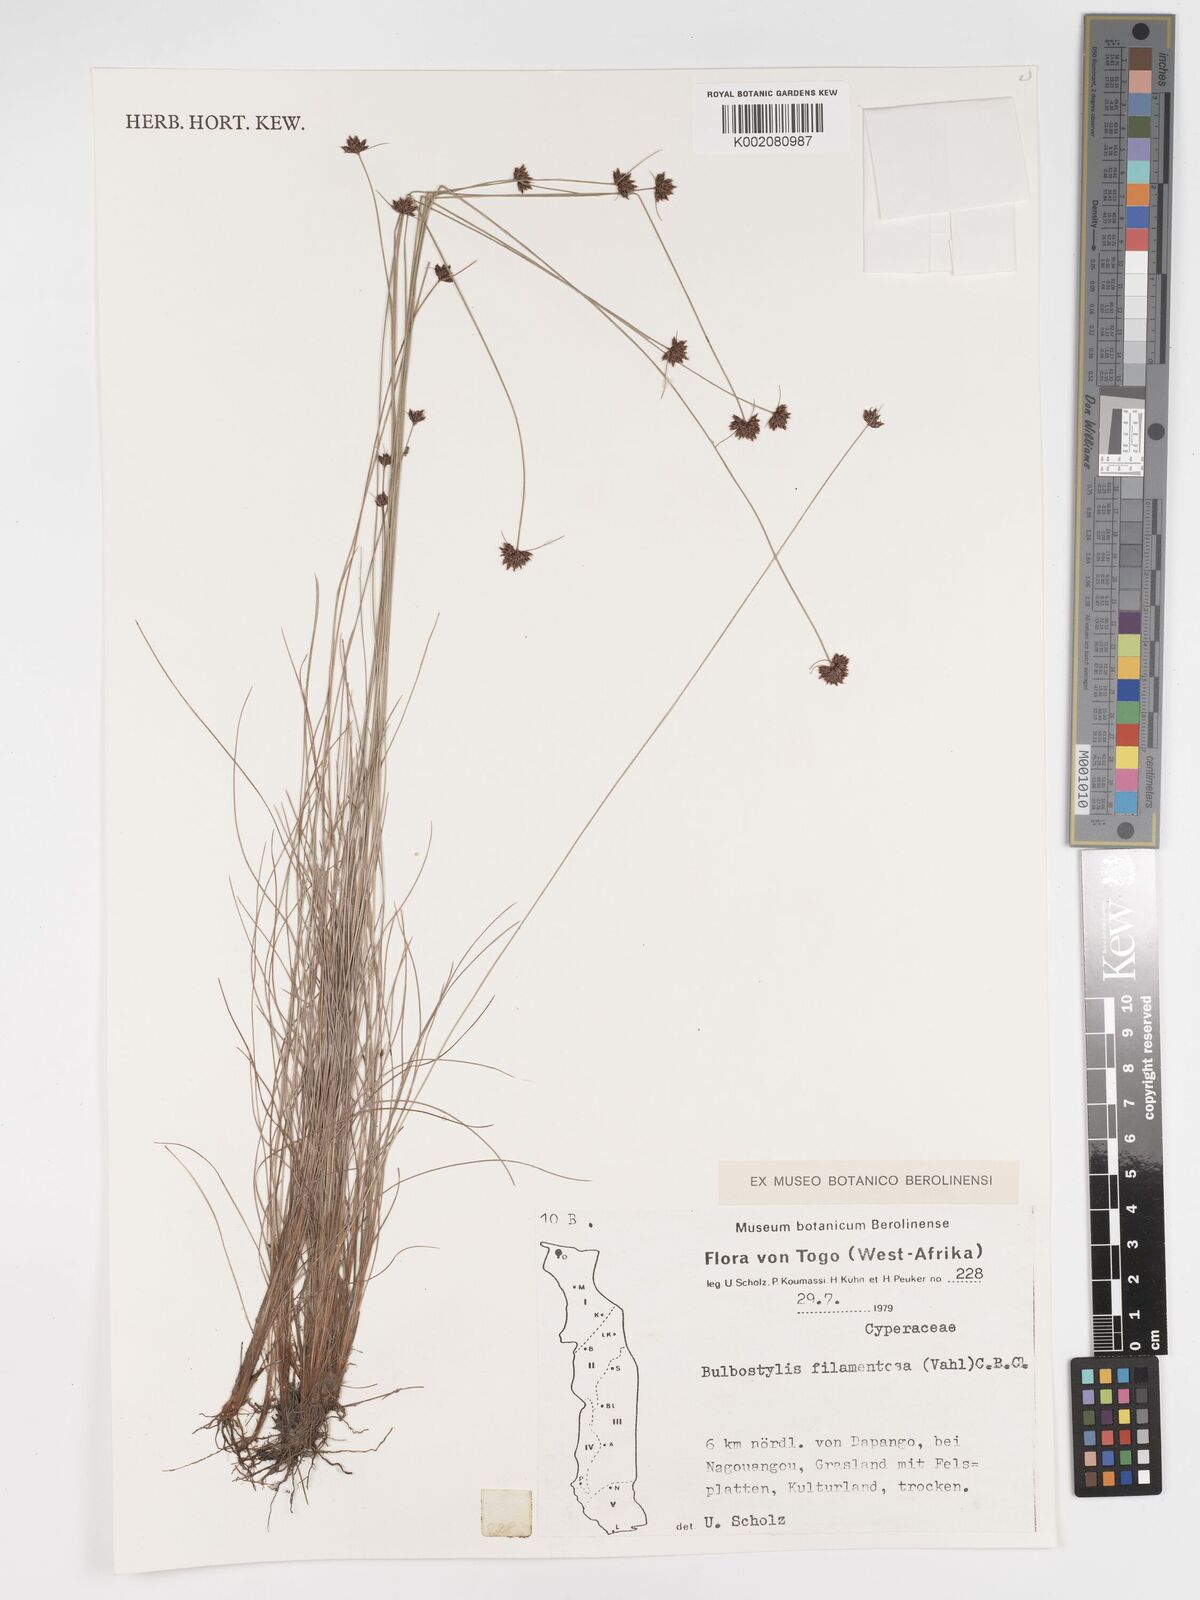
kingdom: Plantae
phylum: Tracheophyta
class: Liliopsida
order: Poales
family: Cyperaceae
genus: Bulbostylis
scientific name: Bulbostylis filamentosa
